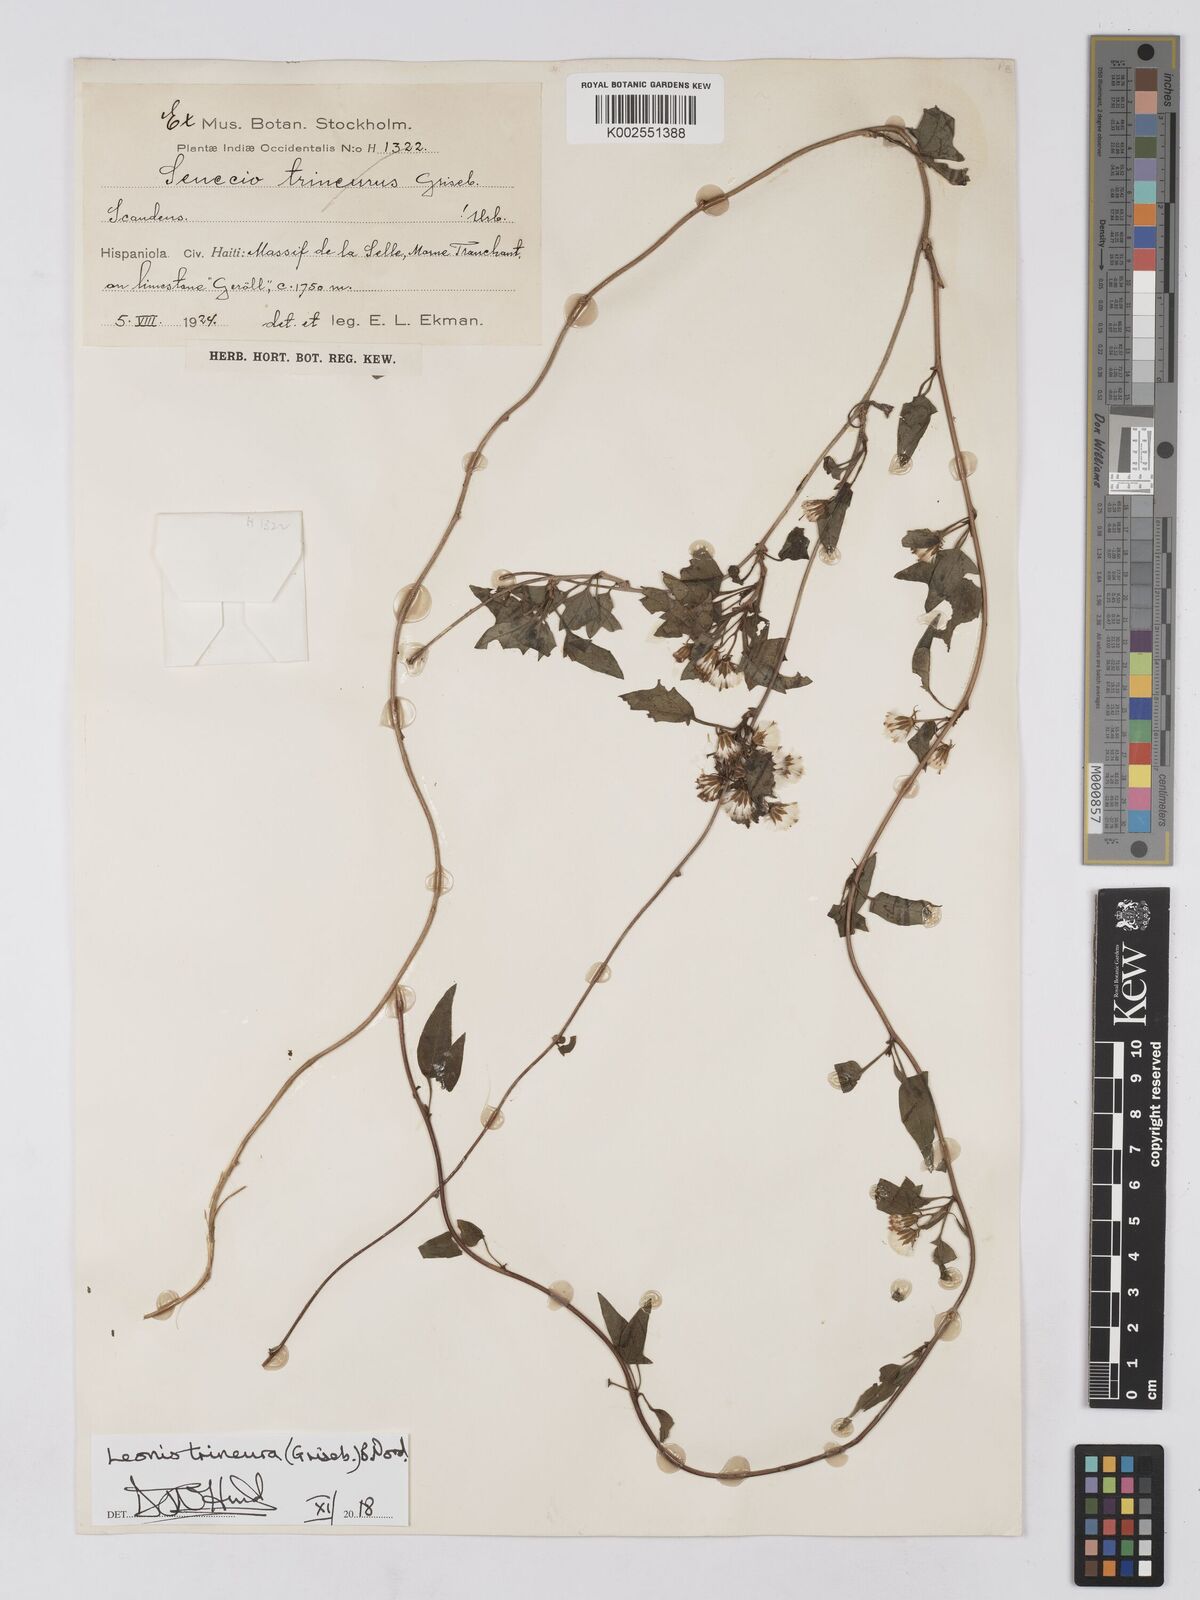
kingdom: Plantae
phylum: Tracheophyta
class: Magnoliopsida
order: Asterales
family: Asteraceae
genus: Leonis
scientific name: Leonis trineura
